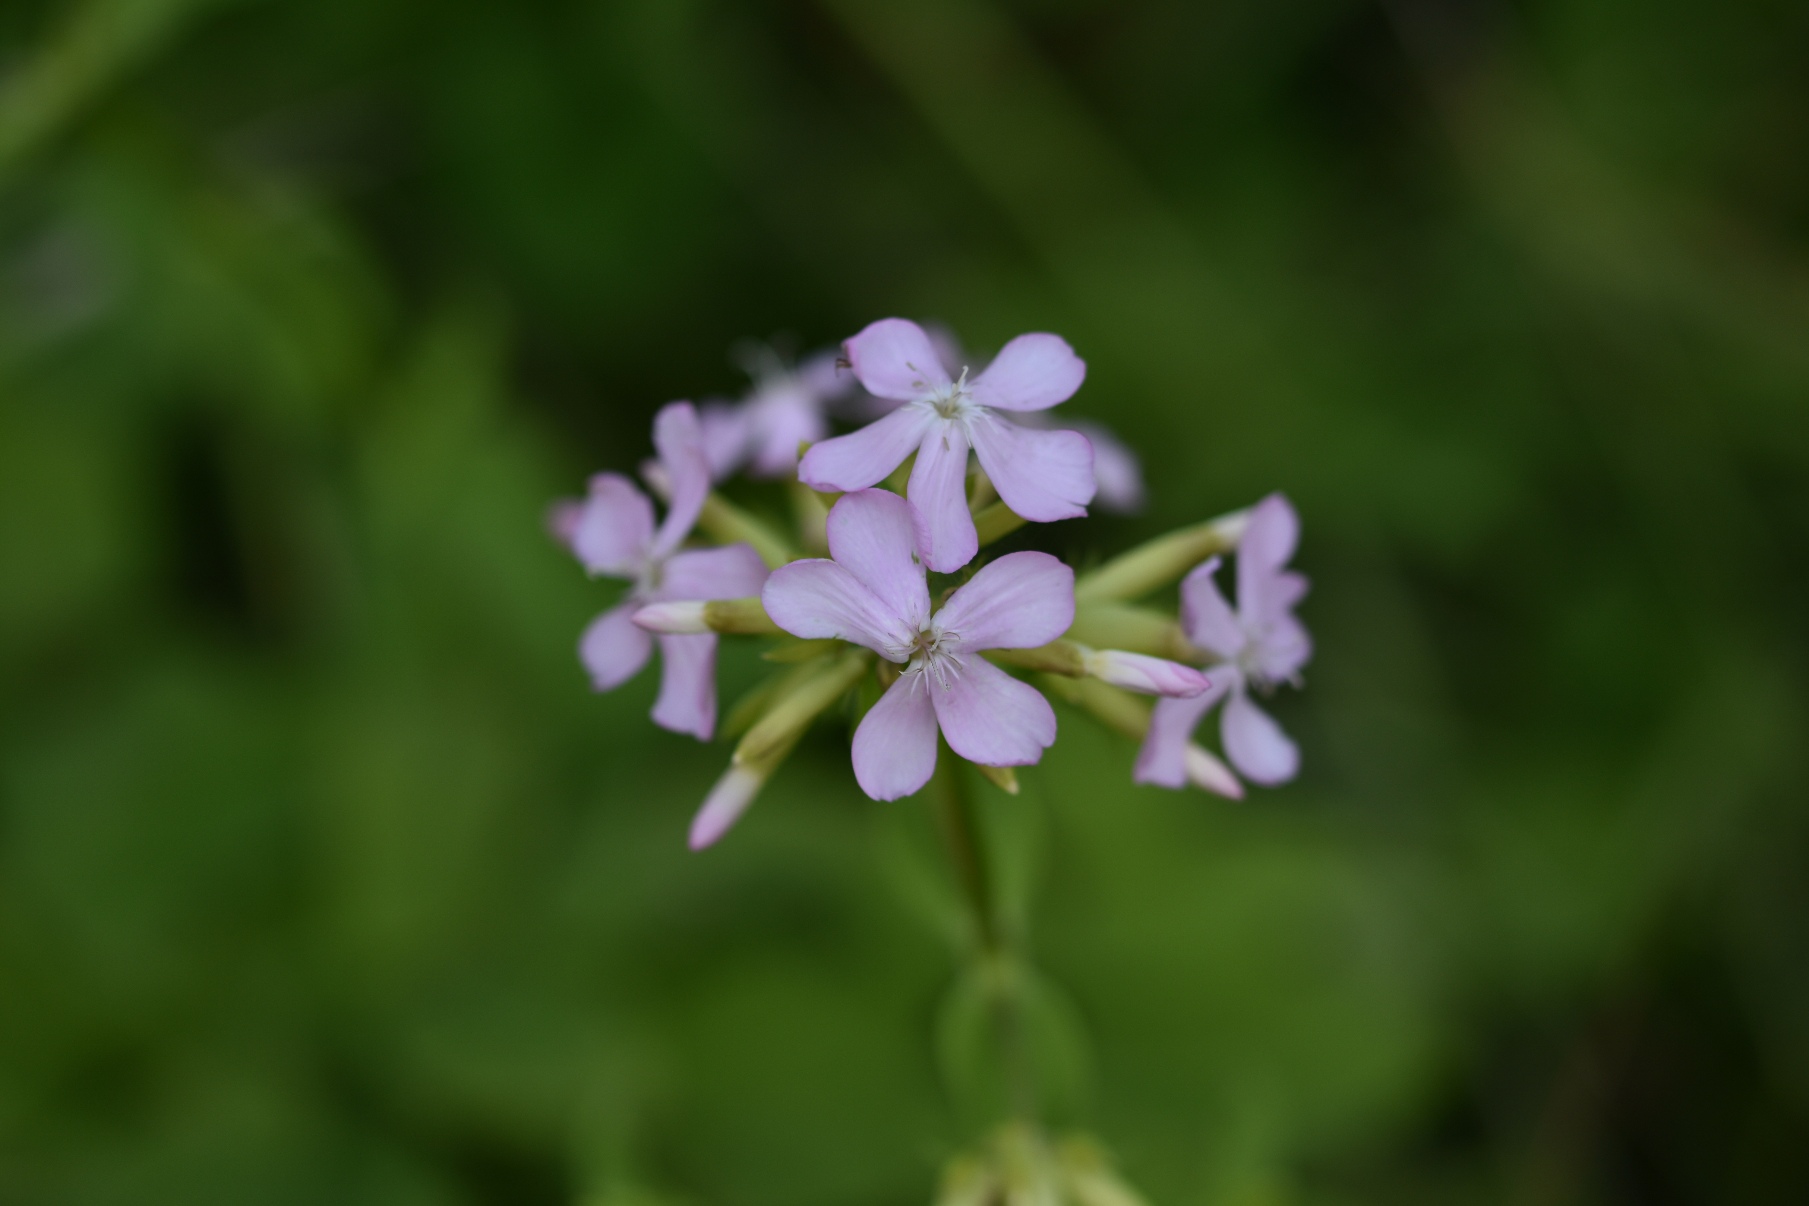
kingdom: Plantae
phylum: Tracheophyta
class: Magnoliopsida
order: Caryophyllales
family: Caryophyllaceae
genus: Saponaria
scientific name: Saponaria officinalis
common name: Sæbeurt
